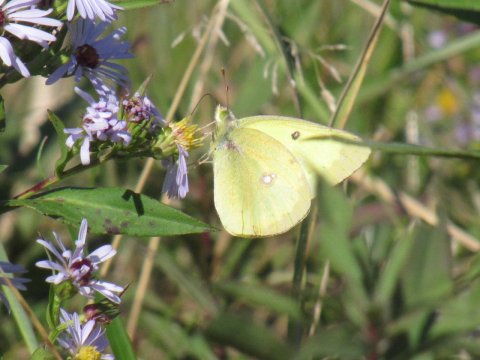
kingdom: Animalia
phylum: Arthropoda
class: Insecta
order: Lepidoptera
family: Pieridae
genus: Colias
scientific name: Colias philodice
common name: Clouded Sulphur
